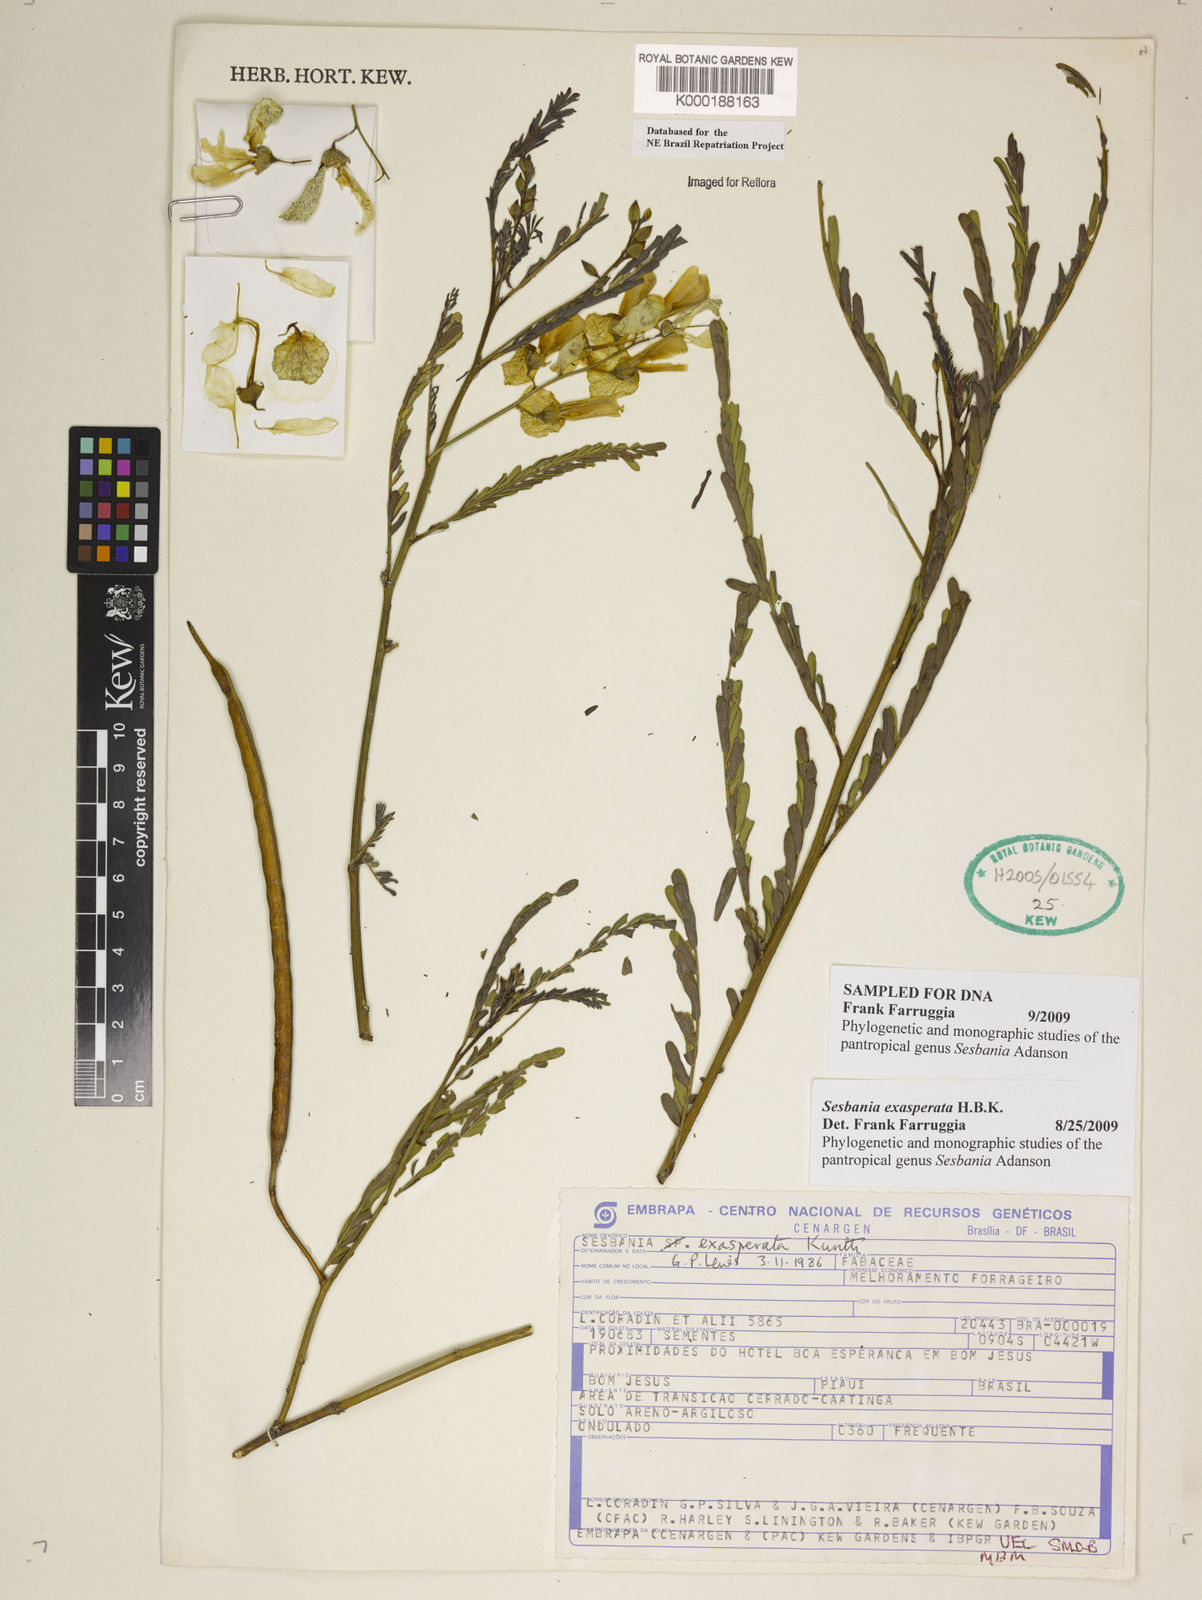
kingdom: Plantae
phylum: Tracheophyta
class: Magnoliopsida
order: Fabales
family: Fabaceae
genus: Sesbania
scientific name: Sesbania exasperata
